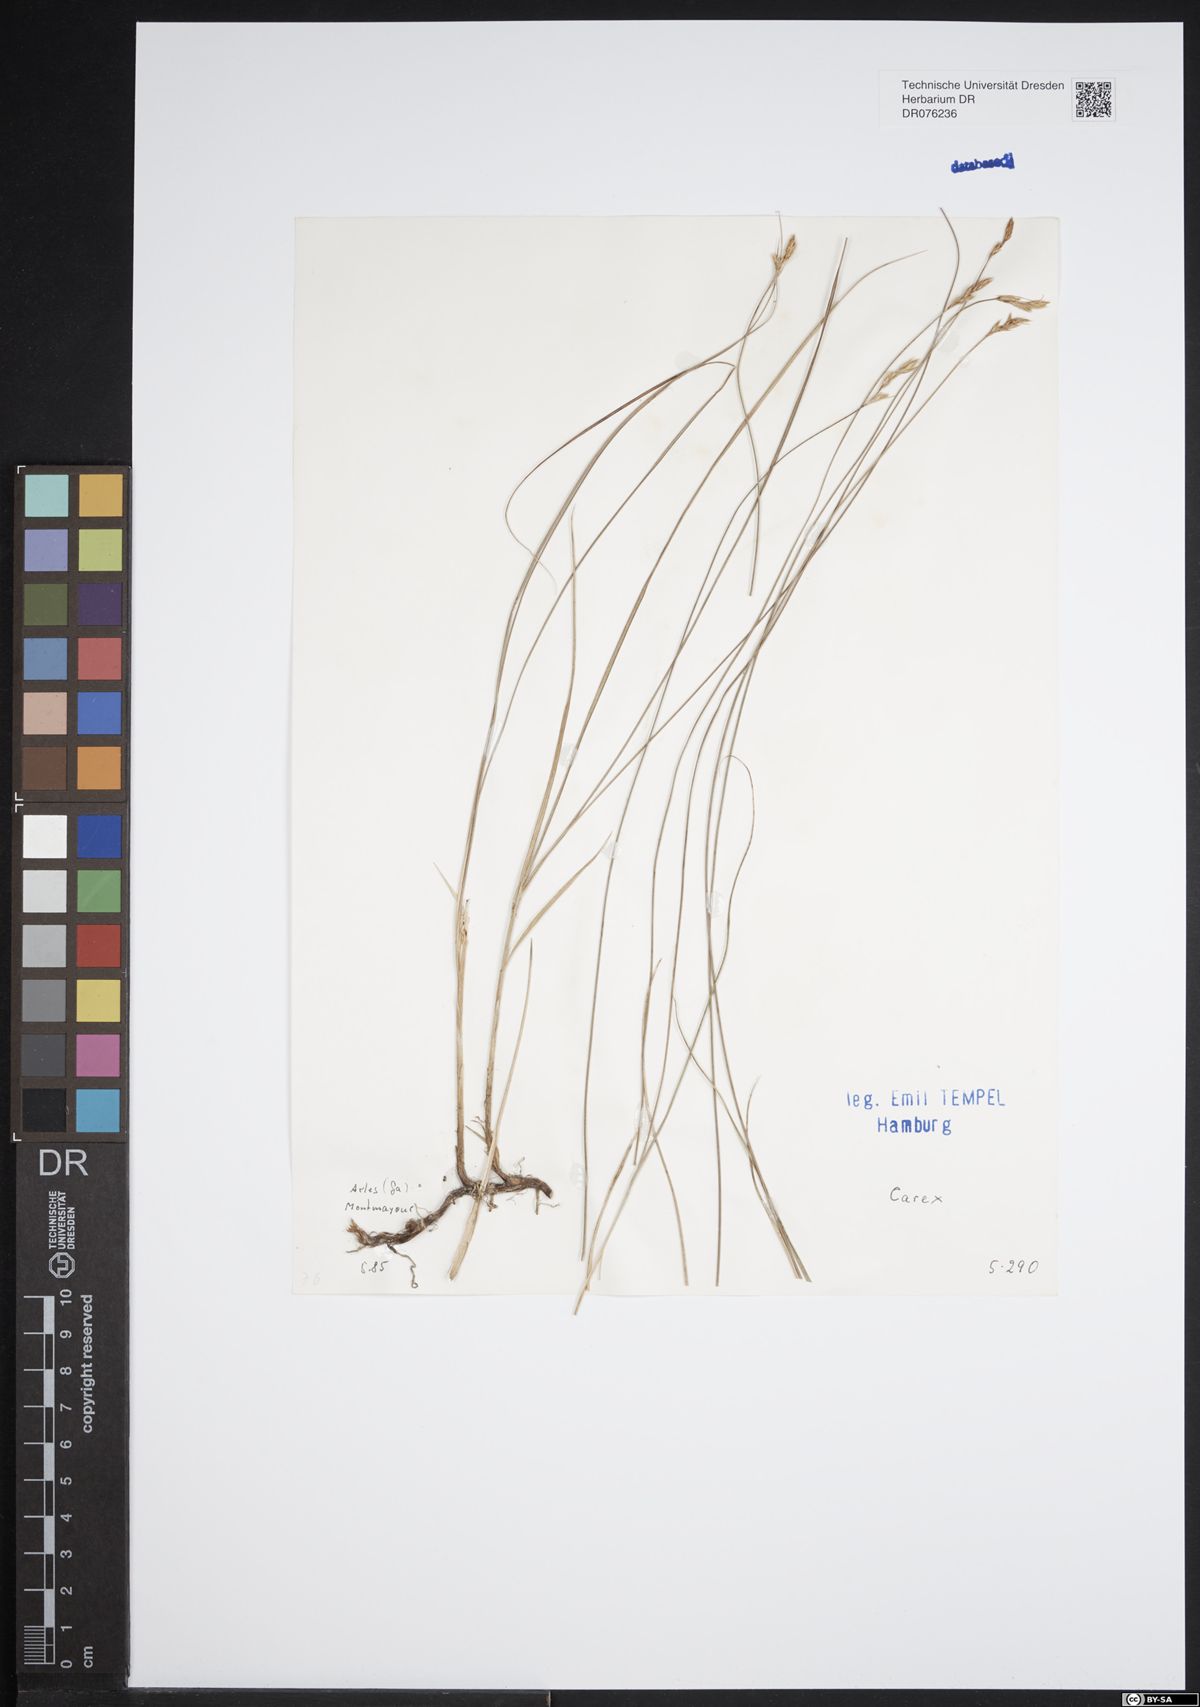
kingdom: Plantae
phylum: Tracheophyta
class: Liliopsida
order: Poales
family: Cyperaceae
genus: Carex
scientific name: Carex
